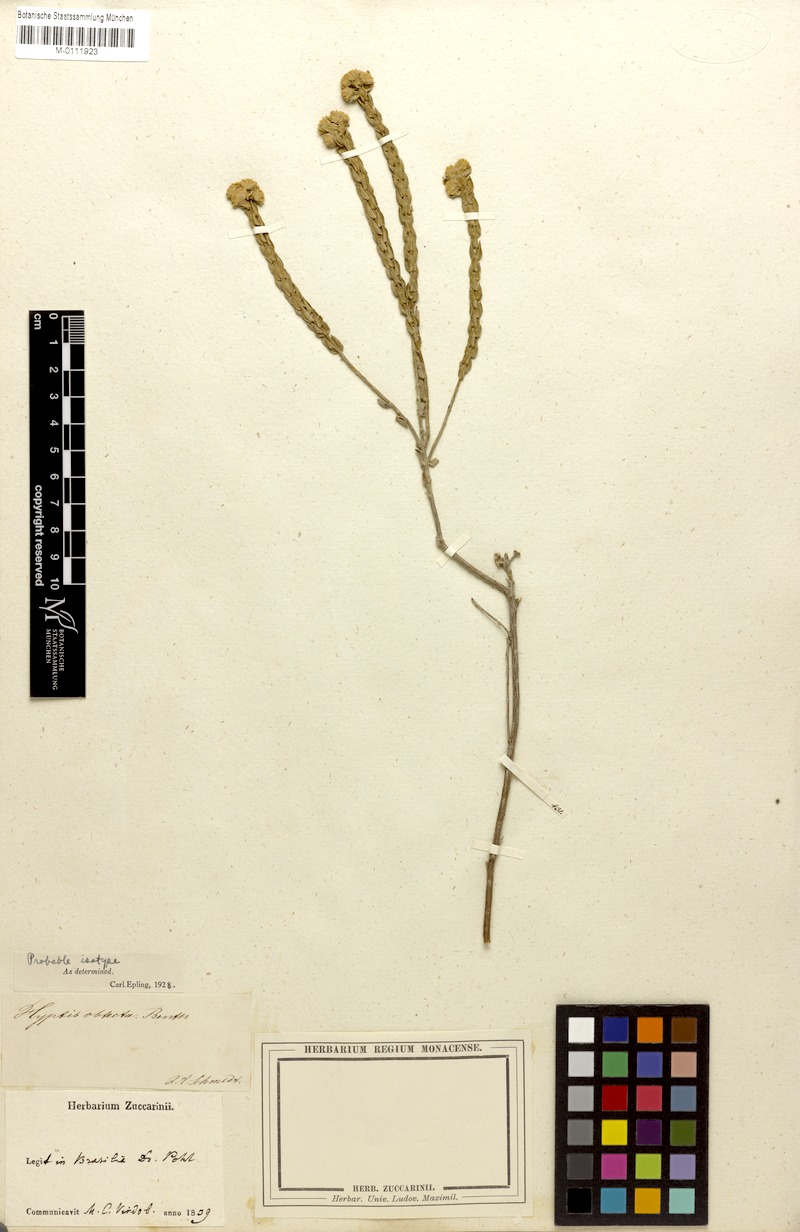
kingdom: Plantae
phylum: Tracheophyta
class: Magnoliopsida
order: Lamiales
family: Lamiaceae
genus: Hyptis
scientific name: Hyptis obtecta
